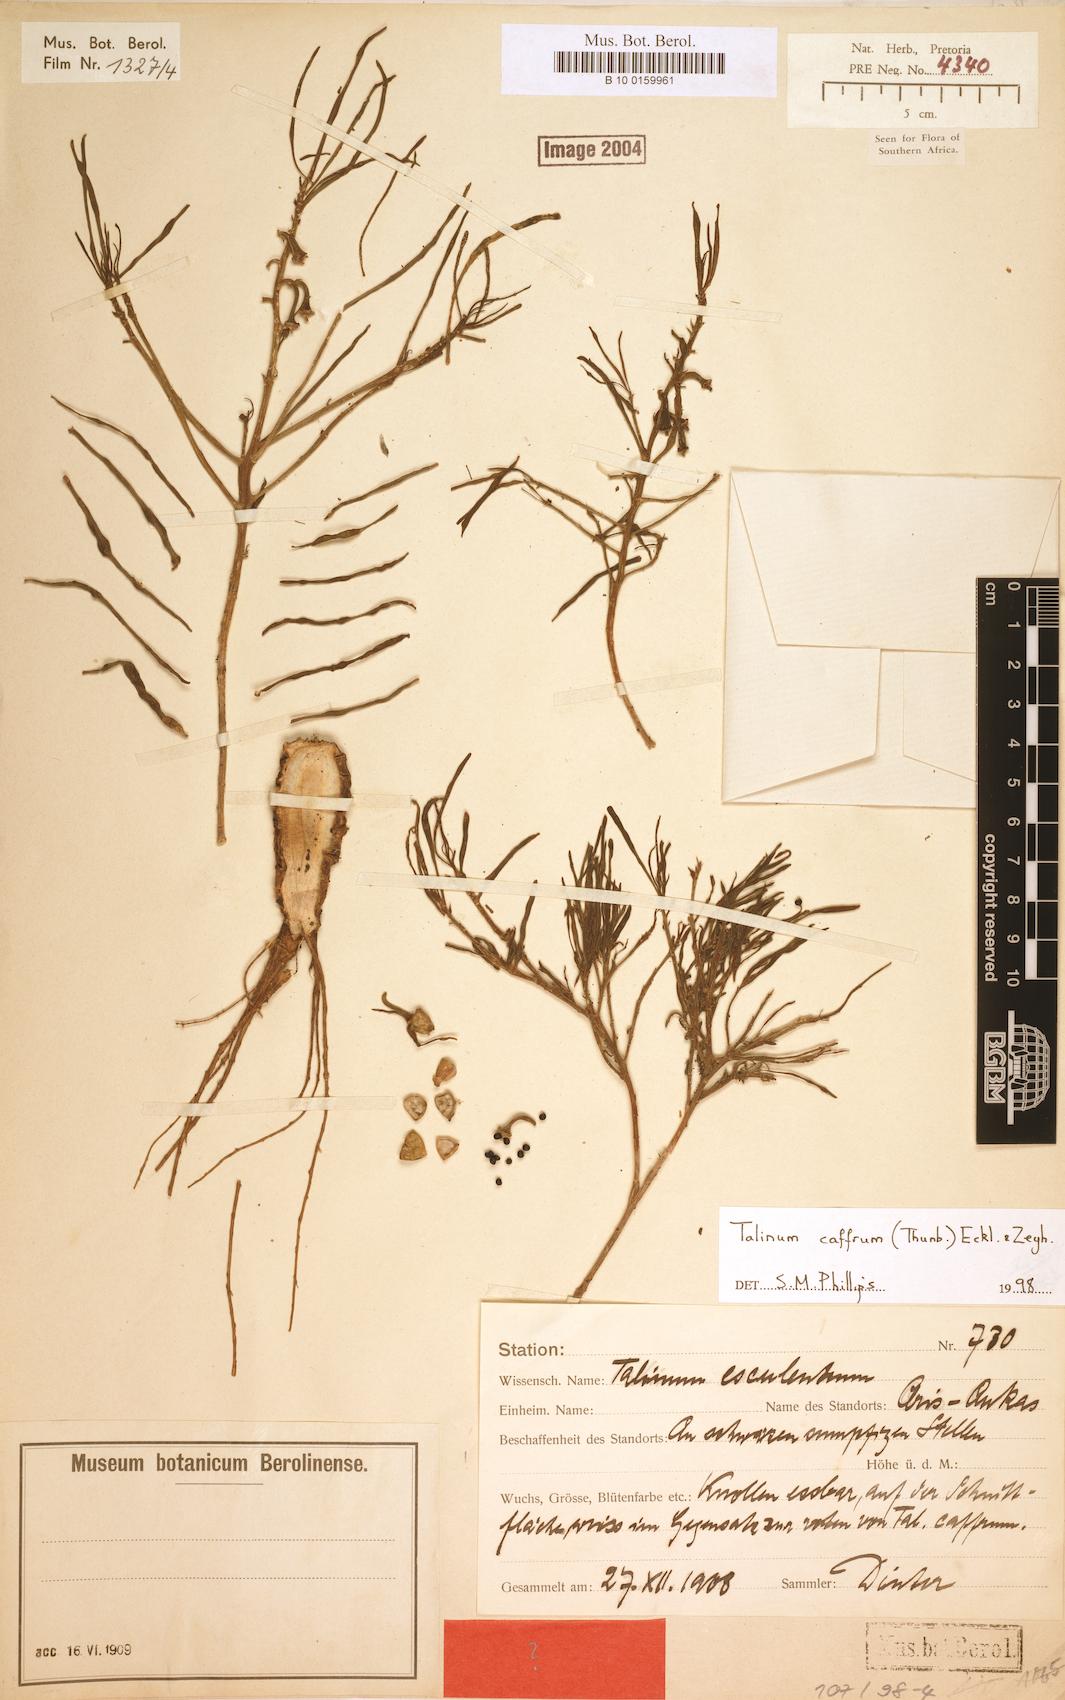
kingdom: Plantae
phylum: Tracheophyta
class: Magnoliopsida
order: Caryophyllales
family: Talinaceae
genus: Talinum
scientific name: Talinum caffrum
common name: Flameflower
